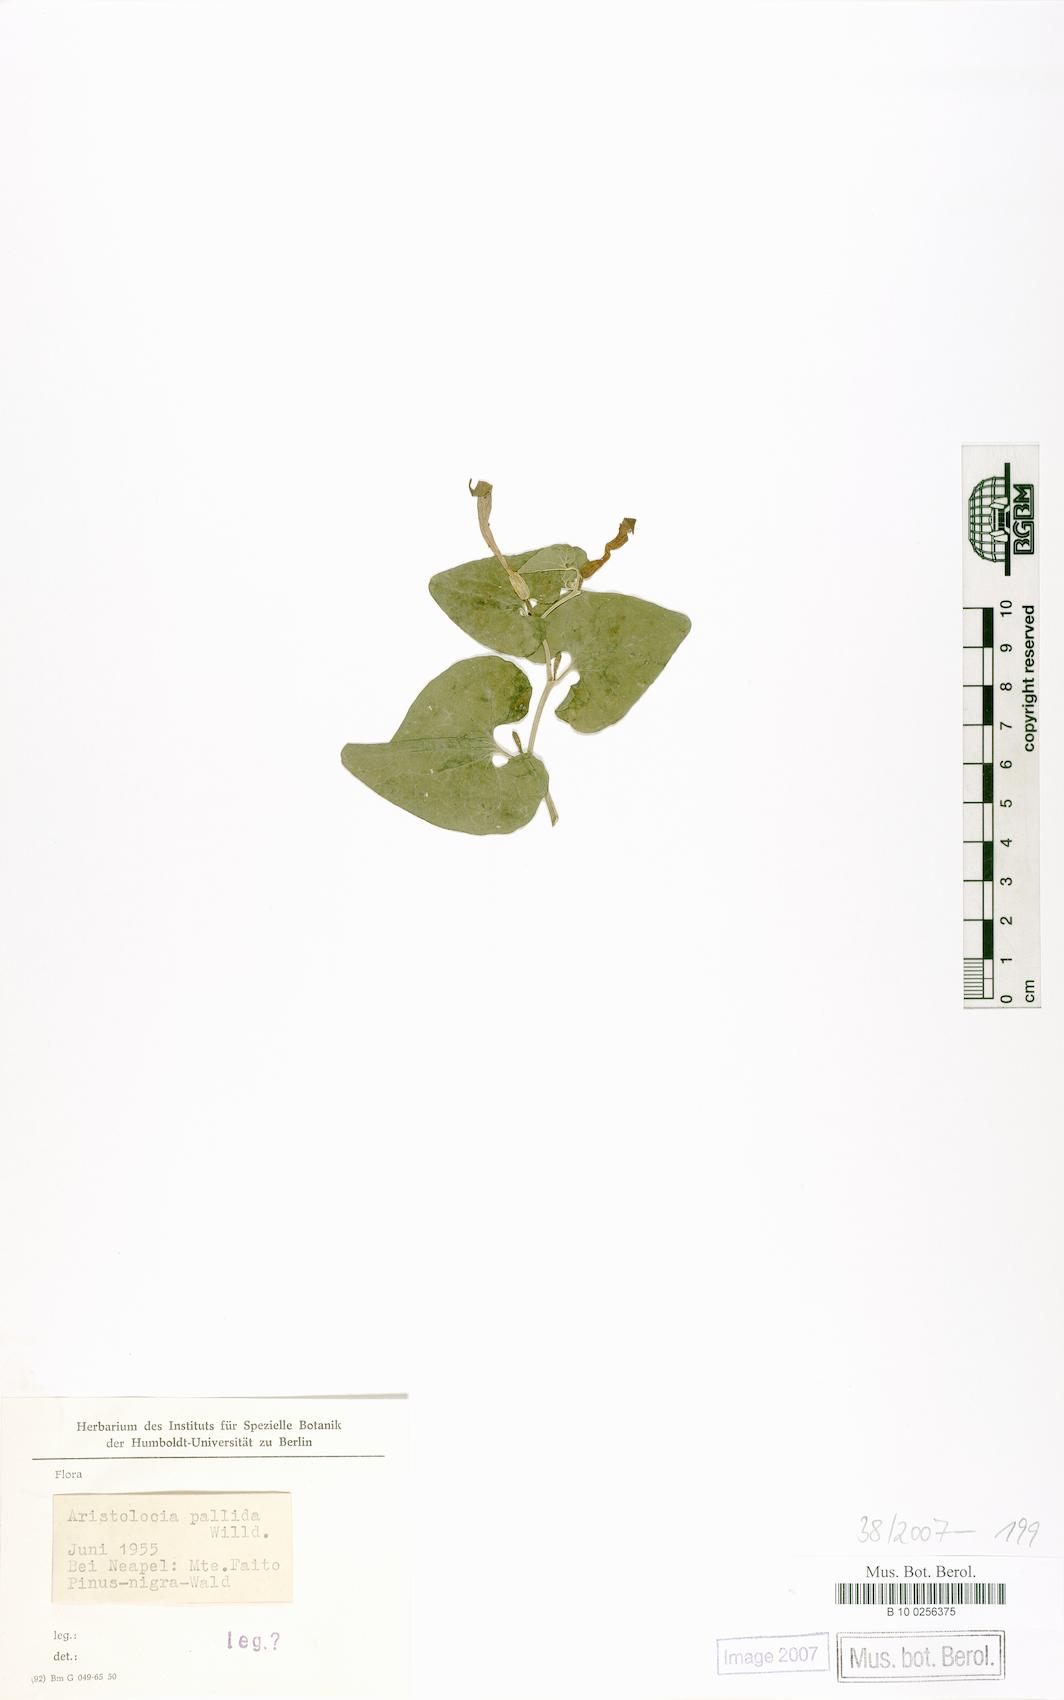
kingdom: Plantae
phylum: Tracheophyta
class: Magnoliopsida
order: Piperales
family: Aristolochiaceae
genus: Aristolochia
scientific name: Aristolochia pallida
